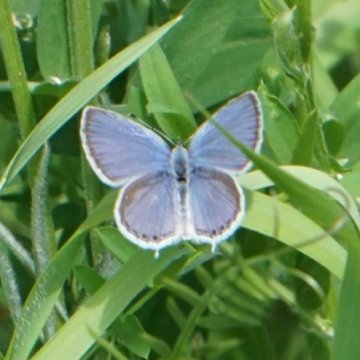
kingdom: Animalia
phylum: Arthropoda
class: Insecta
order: Lepidoptera
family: Lycaenidae
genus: Elkalyce
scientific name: Elkalyce amyntula
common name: Western Tailed-Blue
